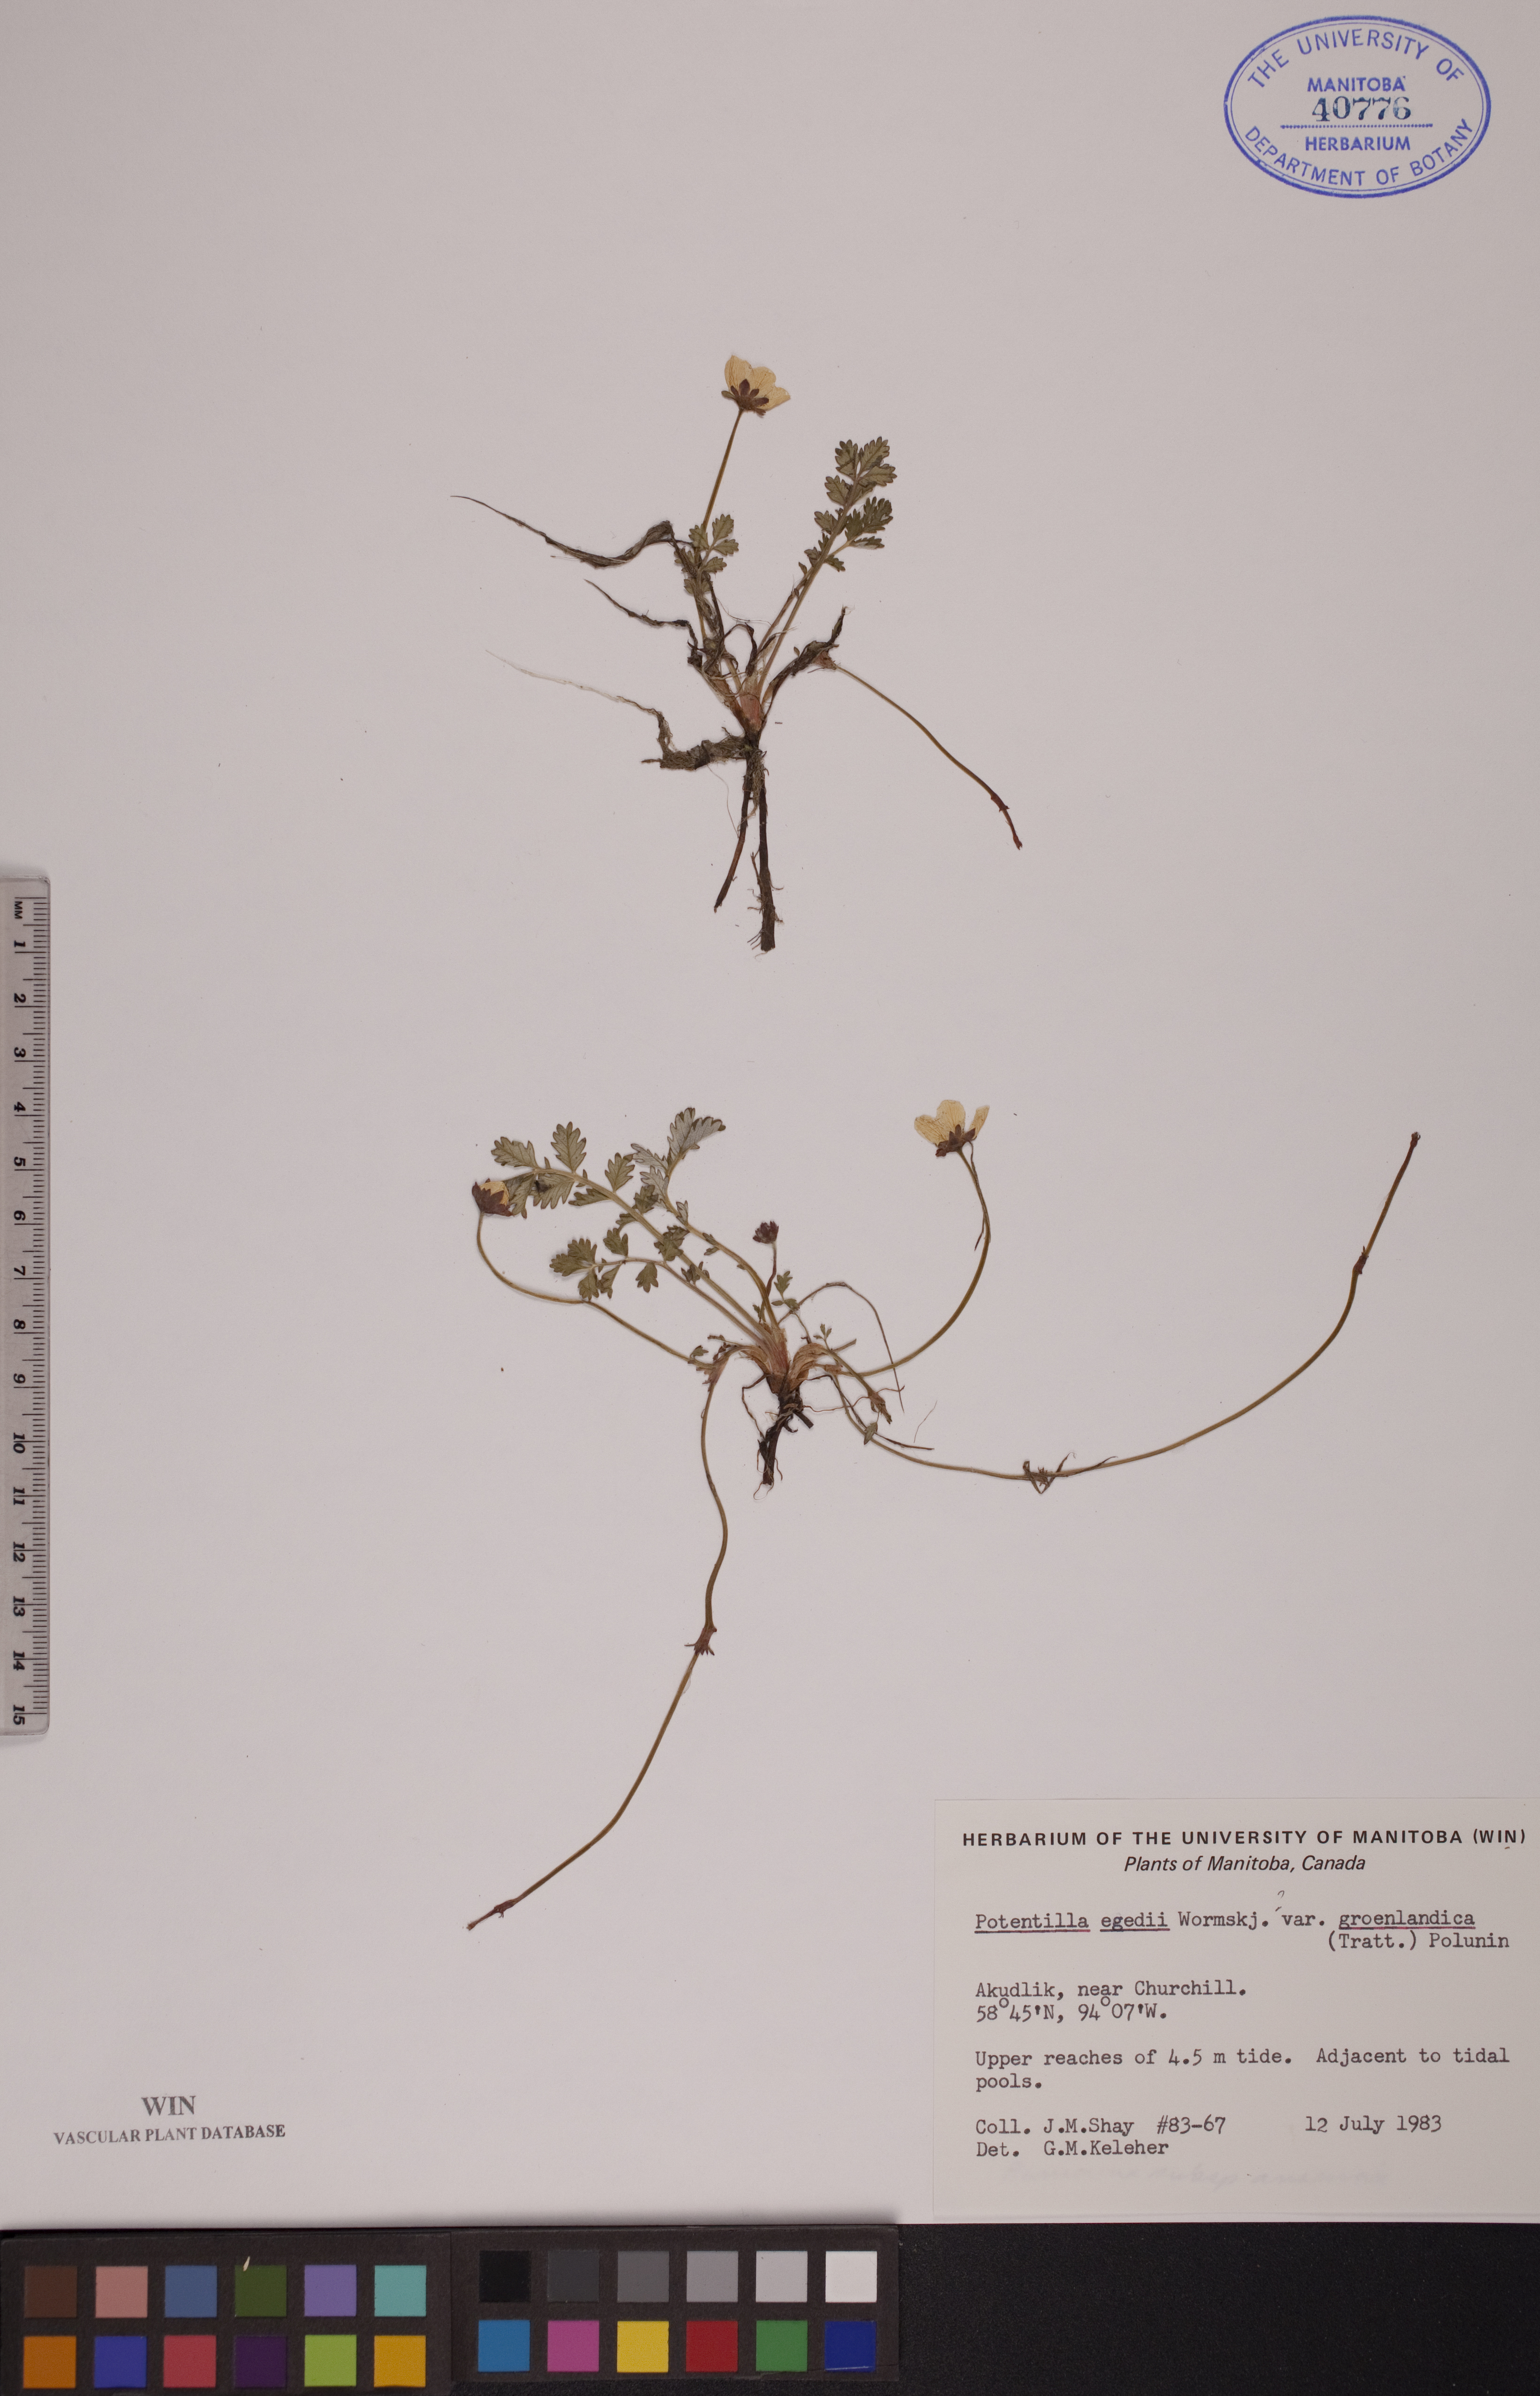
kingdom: Plantae
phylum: Tracheophyta
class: Magnoliopsida
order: Rosales
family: Rosaceae
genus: Argentina
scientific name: Argentina anserina
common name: Common silverweed
